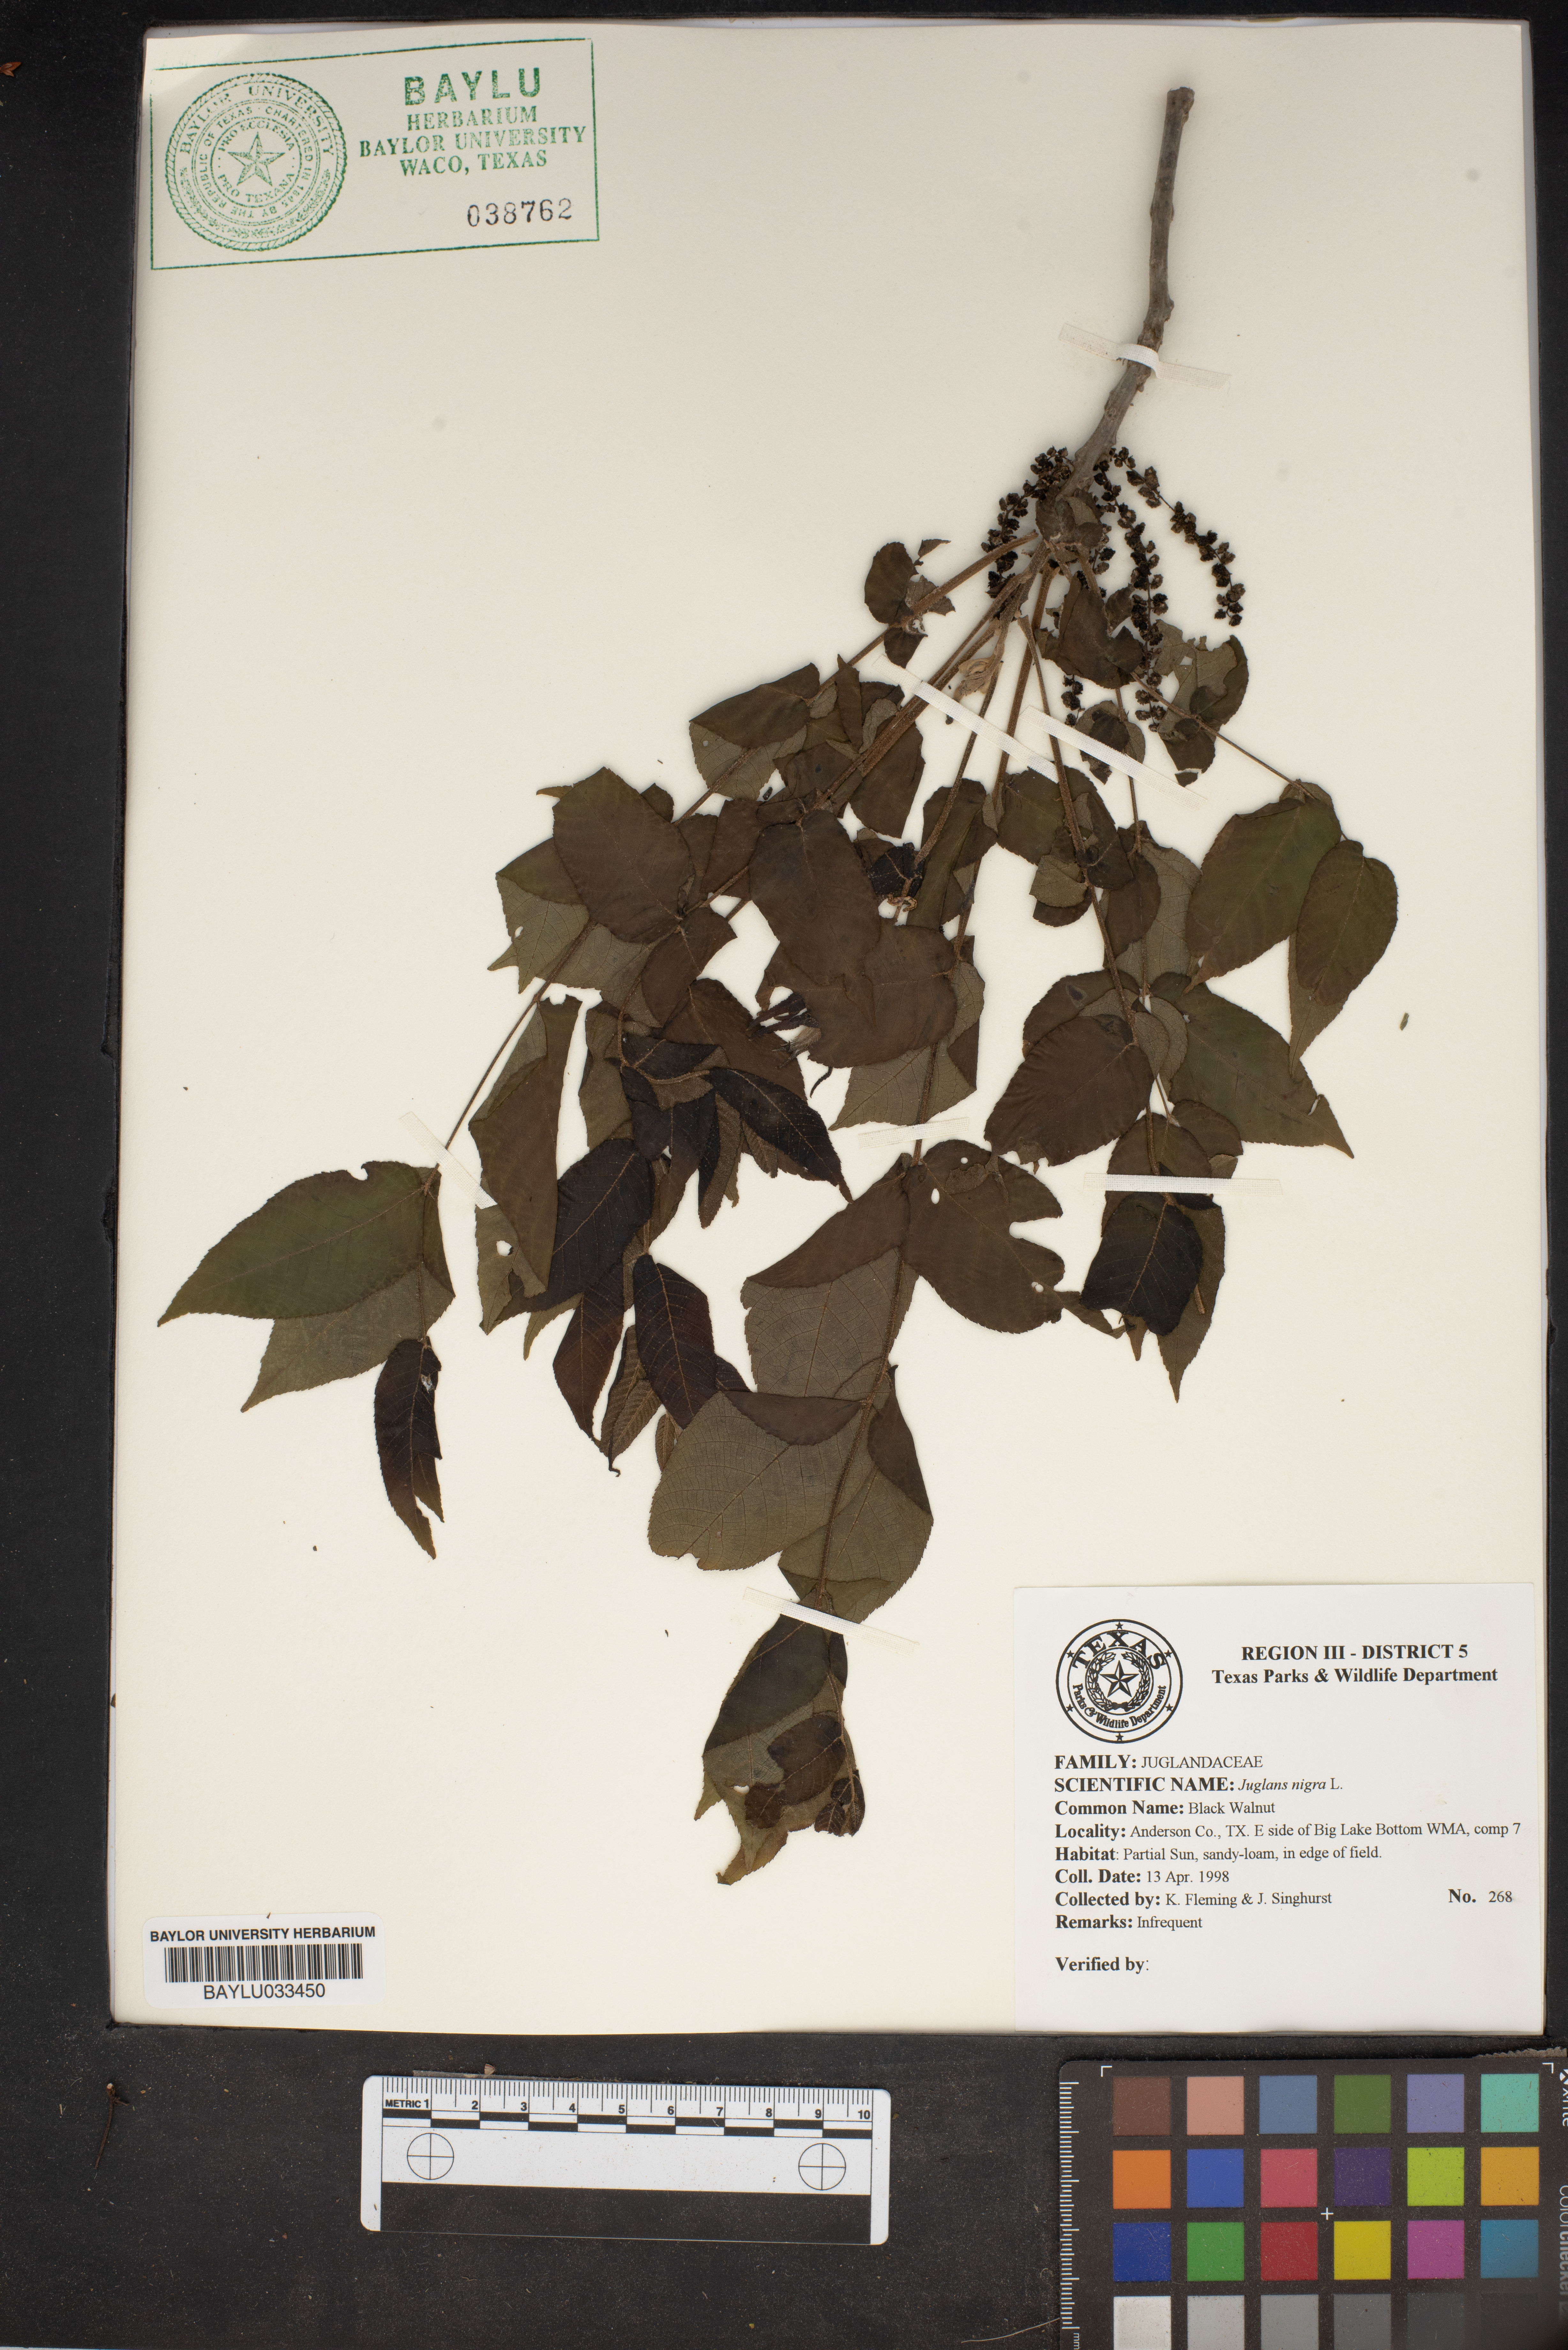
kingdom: Plantae
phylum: Tracheophyta
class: Magnoliopsida
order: Fagales
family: Juglandaceae
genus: Juglans
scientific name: Juglans nigra
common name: Black walnut
